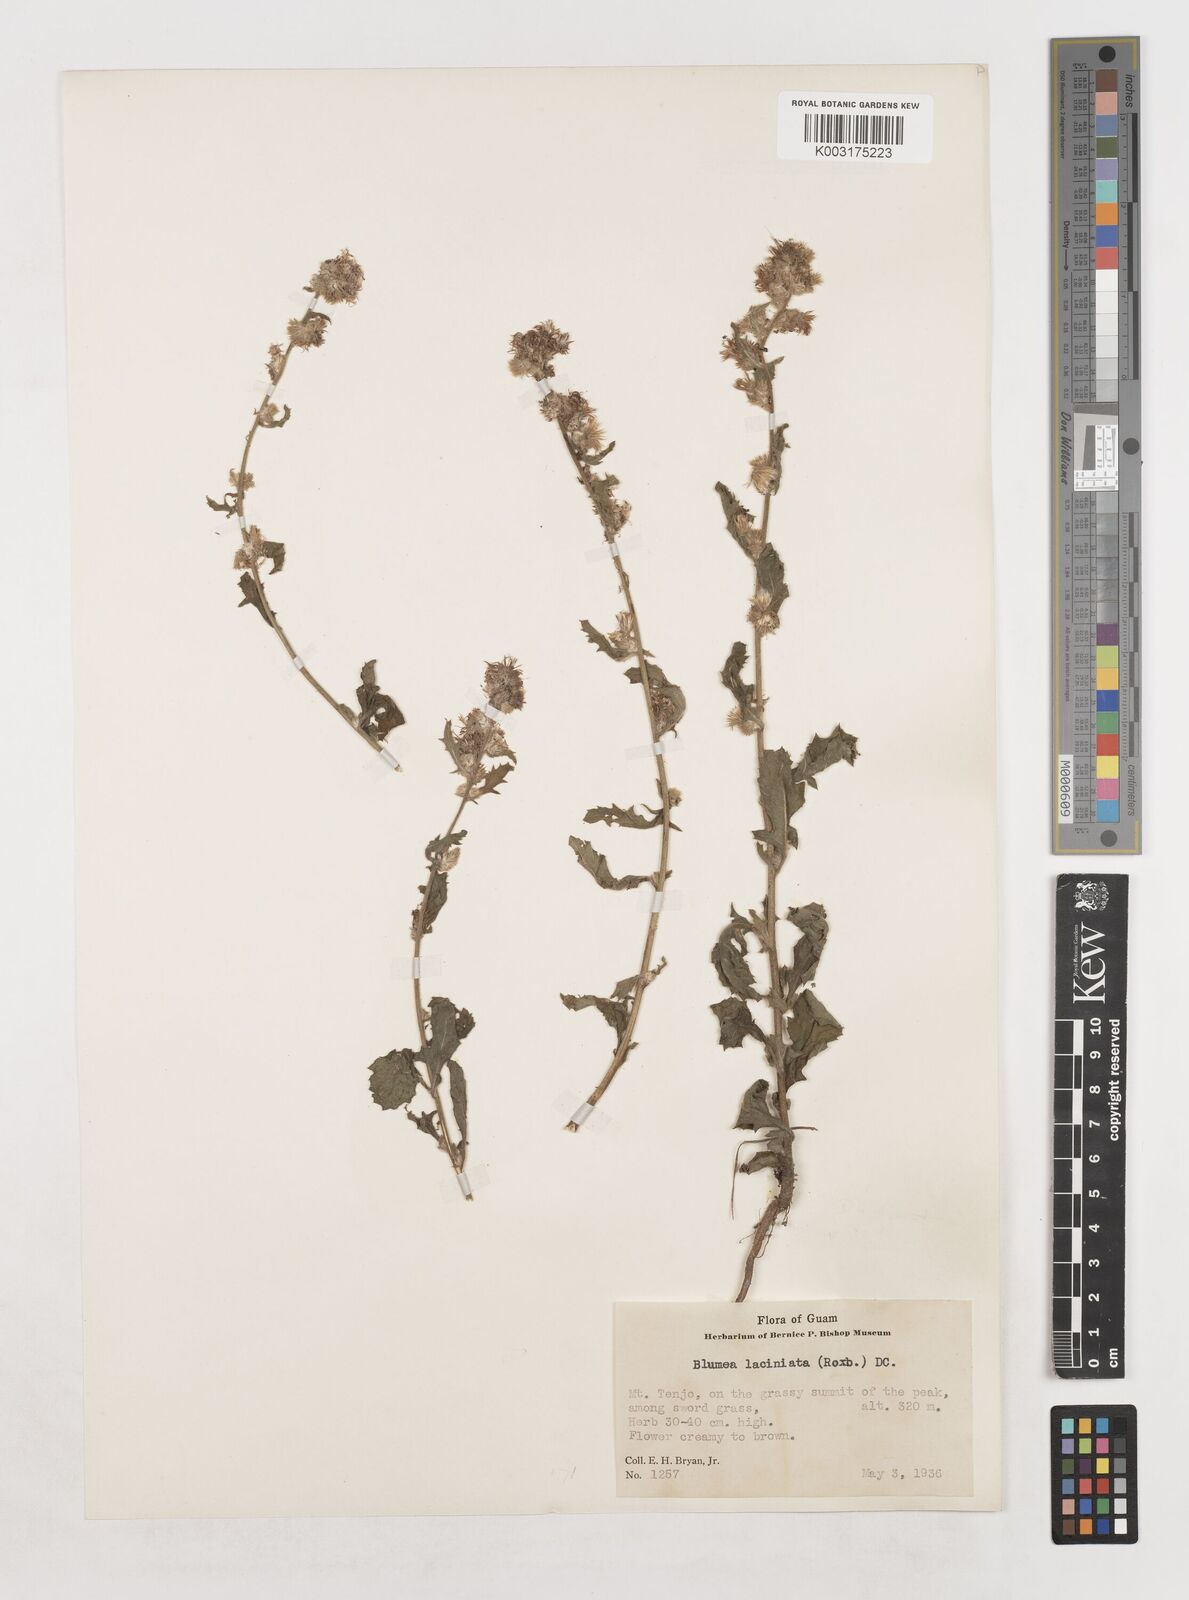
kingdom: Plantae
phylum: Tracheophyta
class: Magnoliopsida
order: Asterales
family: Asteraceae
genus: Blumea
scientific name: Blumea sinuata
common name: Cutleaf false oxtongue
